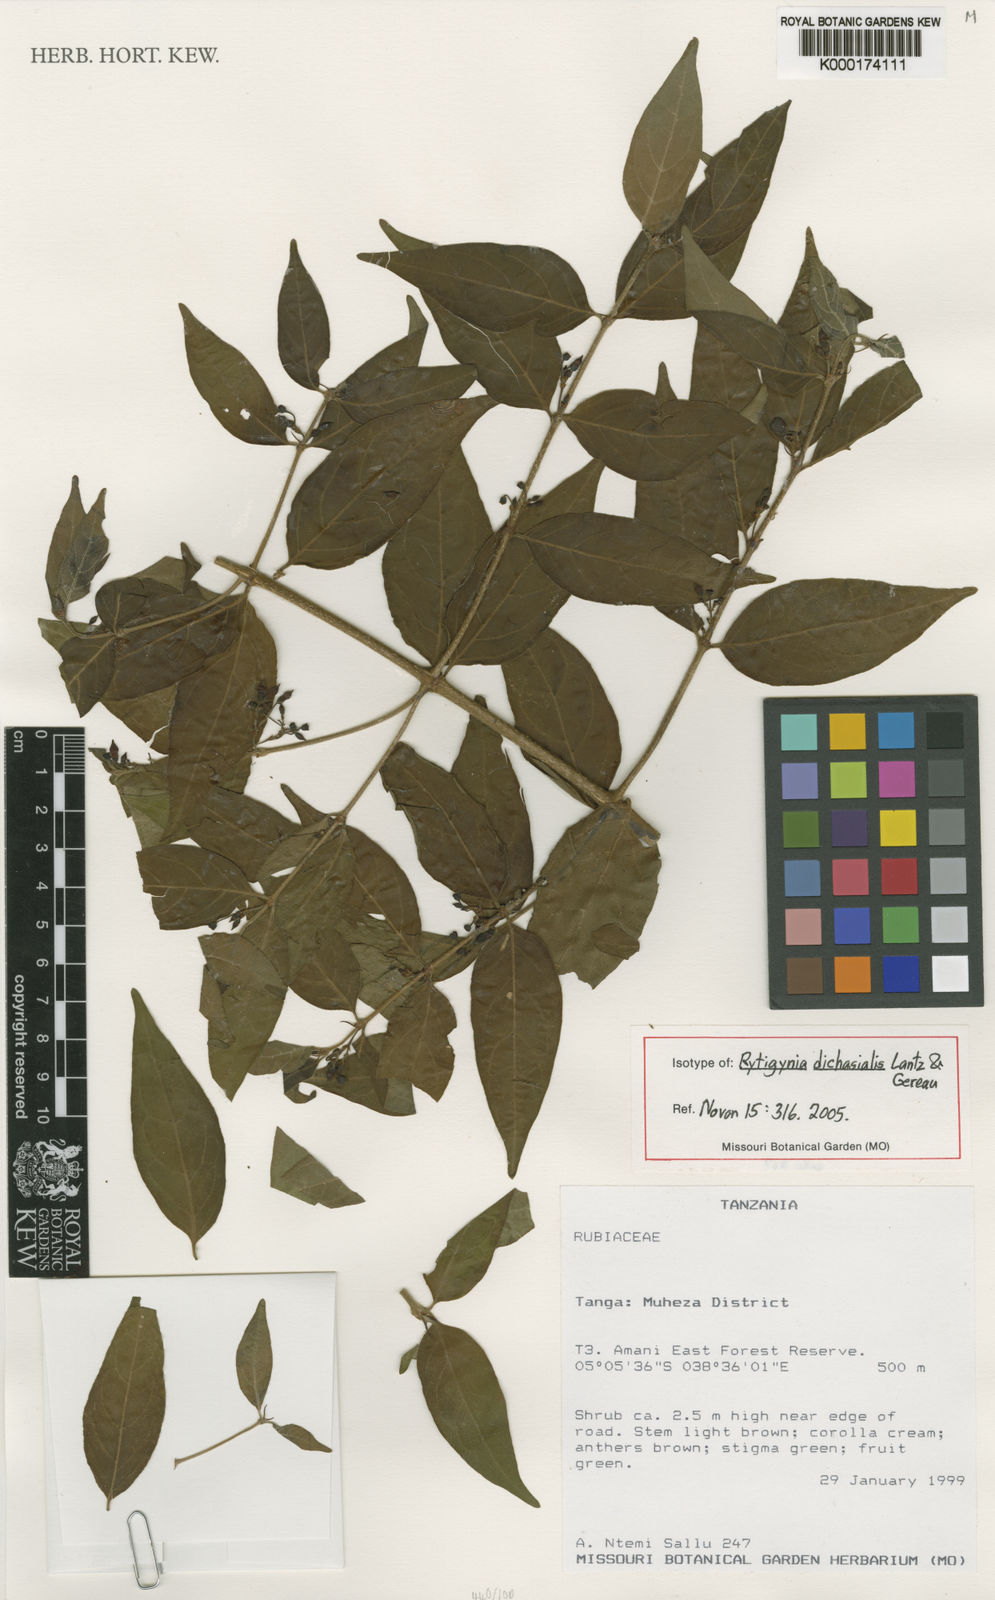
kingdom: Plantae
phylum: Tracheophyta
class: Magnoliopsida
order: Gentianales
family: Rubiaceae
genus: Rytigynia
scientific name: Rytigynia dichasialis
